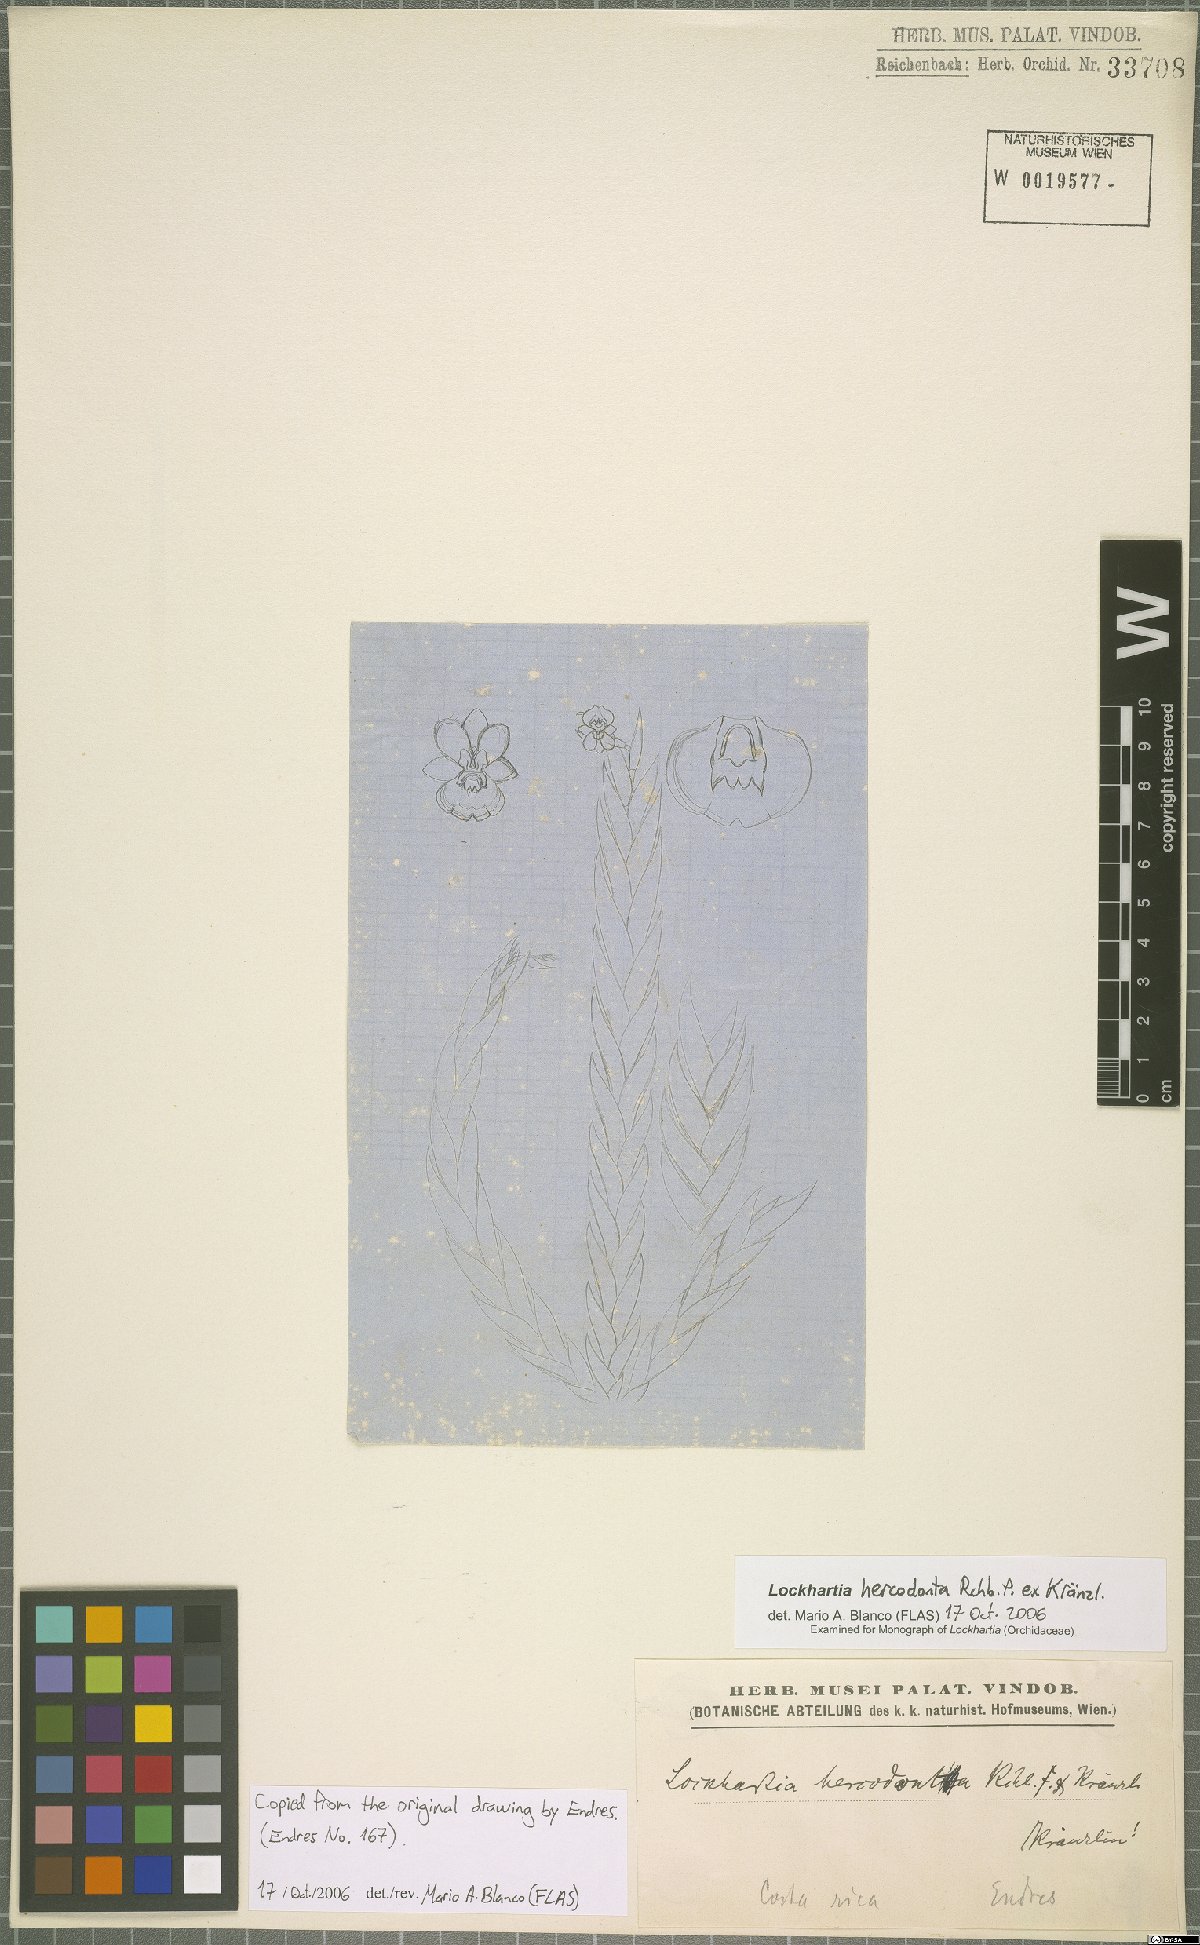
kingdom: Plantae
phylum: Tracheophyta
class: Liliopsida
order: Asparagales
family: Orchidaceae
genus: Lockhartia
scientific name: Lockhartia hercodonta
